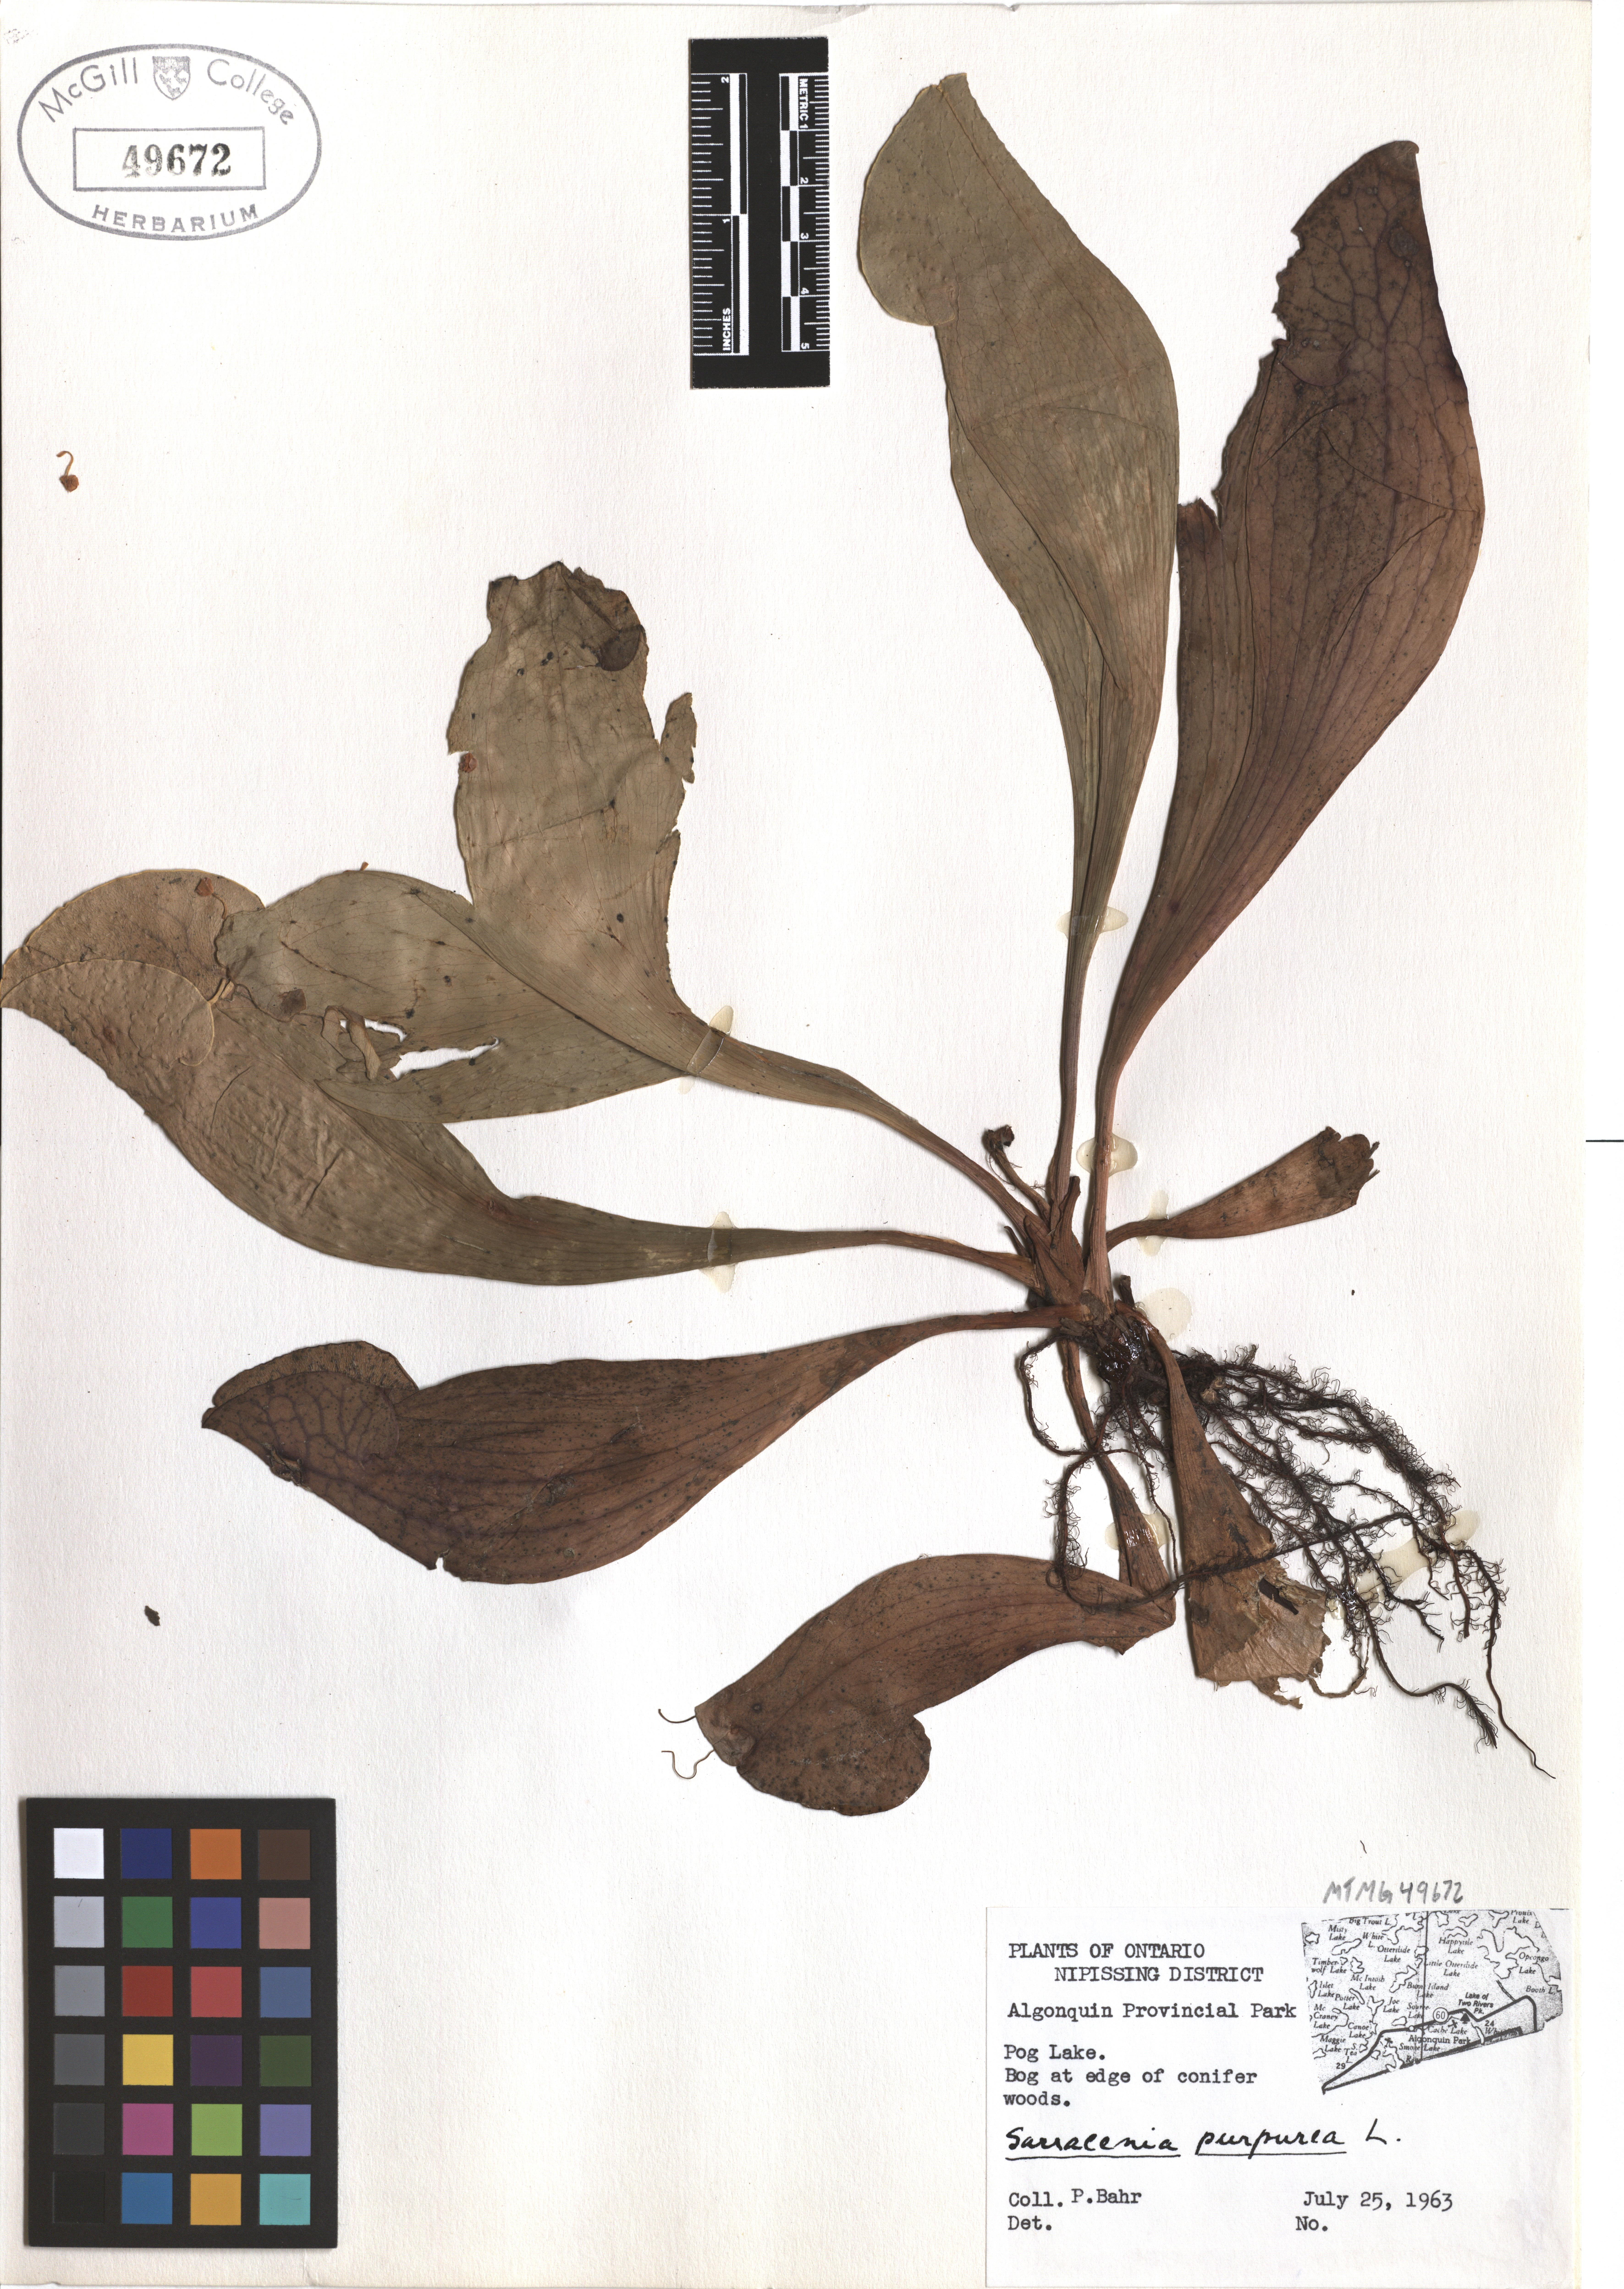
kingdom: Plantae
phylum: Tracheophyta
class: Magnoliopsida
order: Ericales
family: Sarraceniaceae
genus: Sarracenia
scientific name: Sarracenia purpurea
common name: Pitcherplant
